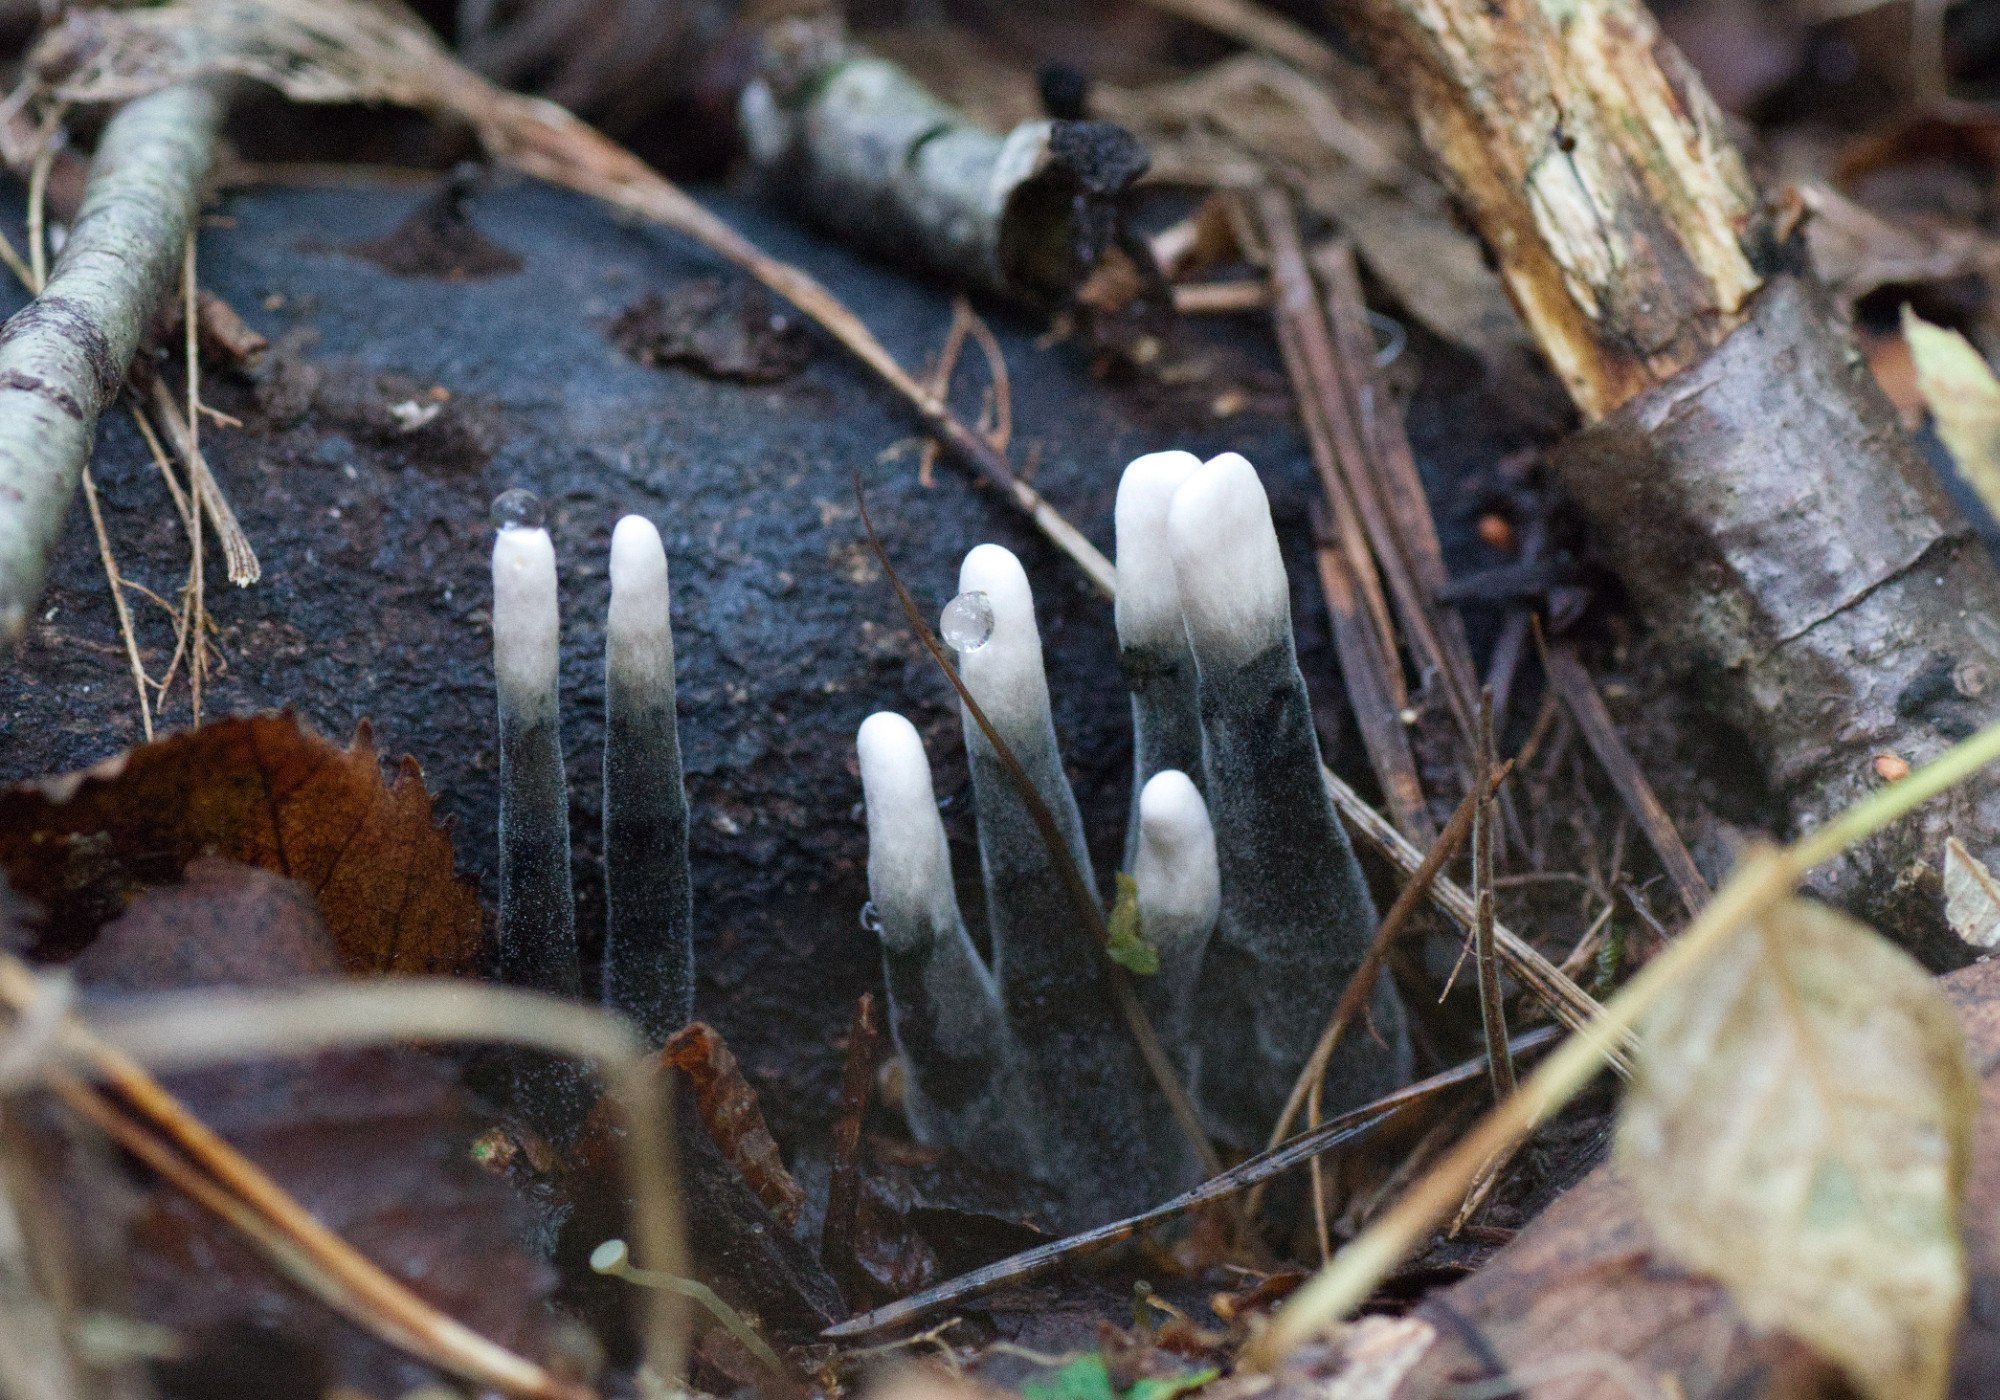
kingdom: Fungi
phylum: Ascomycota
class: Sordariomycetes
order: Xylariales
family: Xylariaceae
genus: Xylaria
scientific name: Xylaria hypoxylon
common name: grenet stødsvamp
